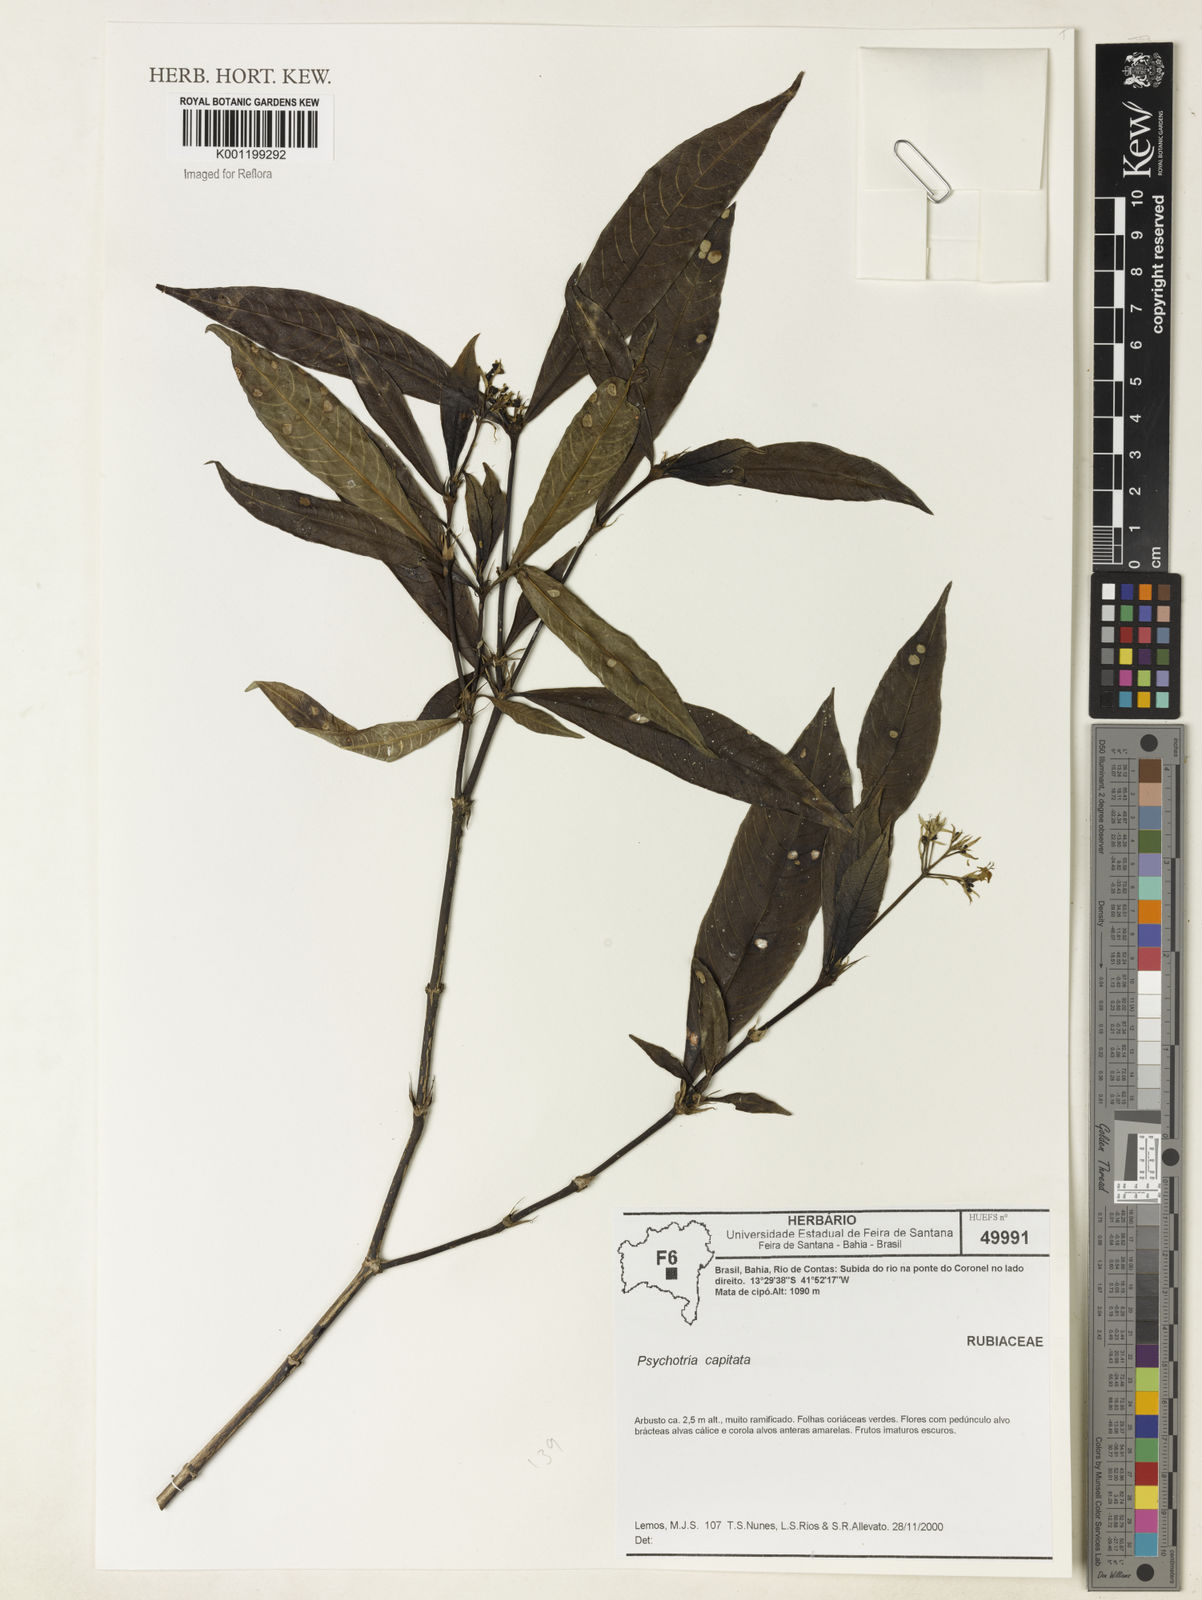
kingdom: Plantae
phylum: Tracheophyta
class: Magnoliopsida
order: Gentianales
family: Rubiaceae
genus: Palicourea
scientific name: Palicourea violacea
